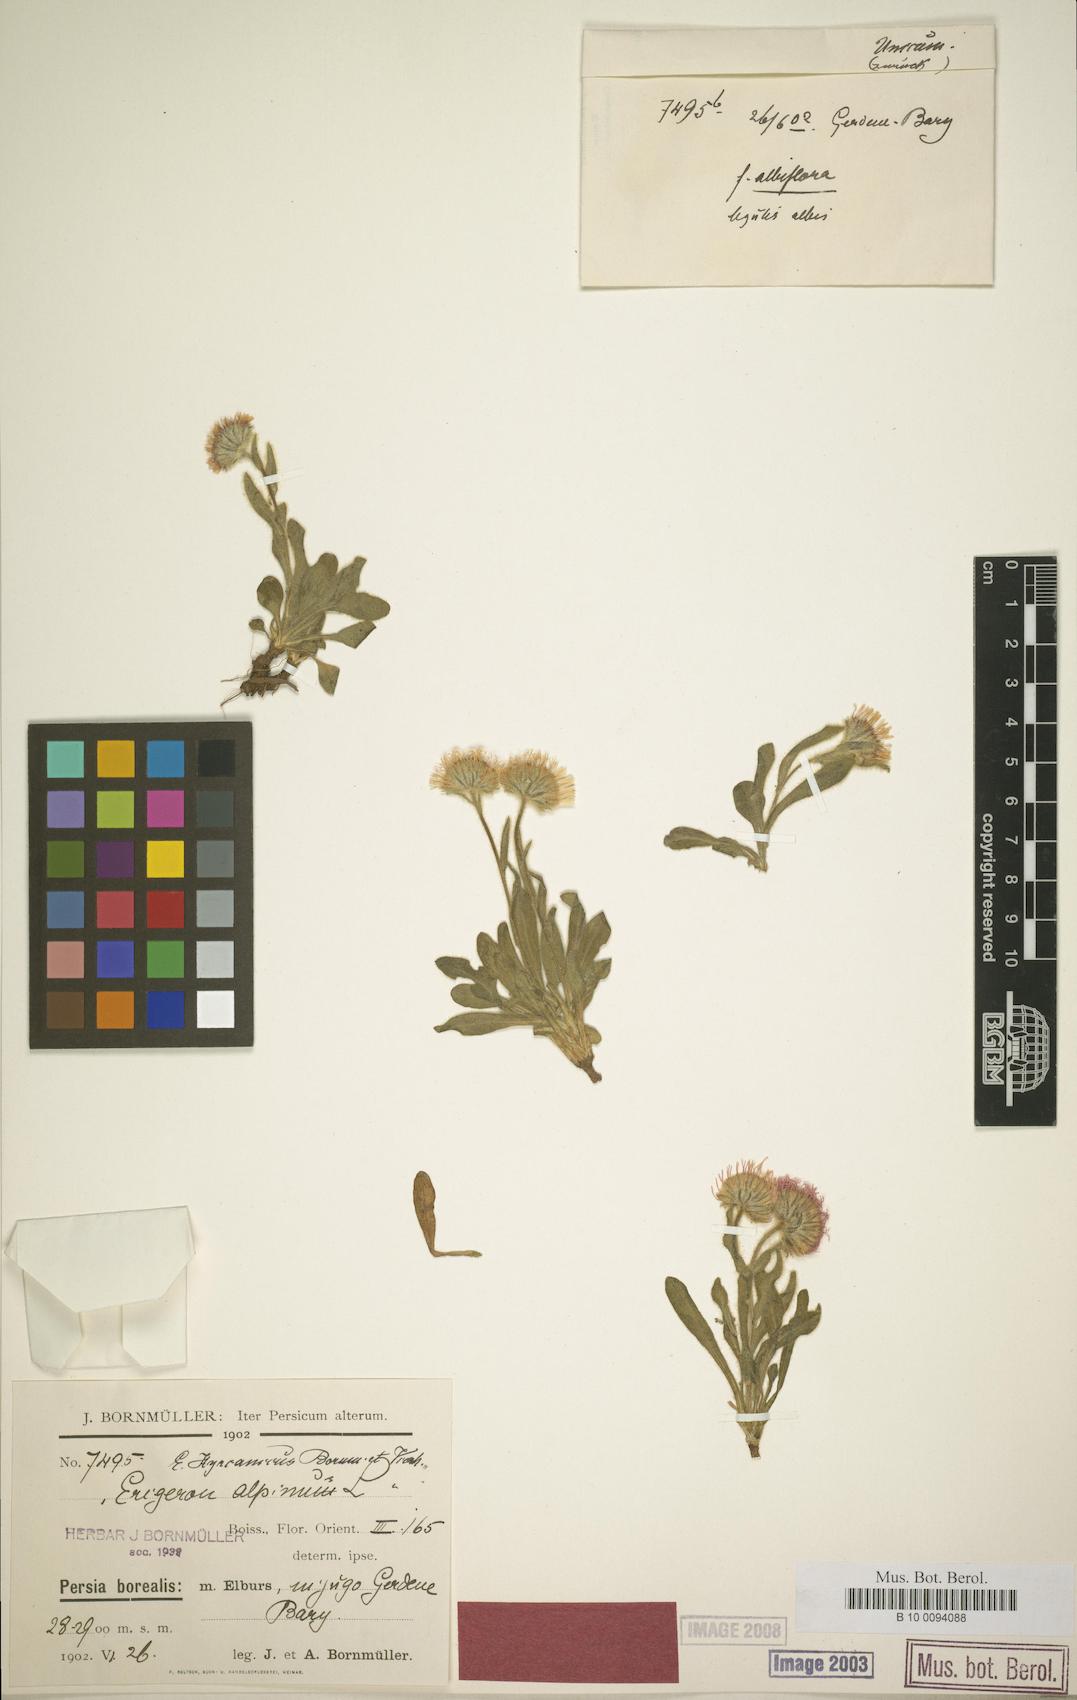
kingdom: Plantae
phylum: Tracheophyta
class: Magnoliopsida
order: Asterales
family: Asteraceae
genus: Erigeron
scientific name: Erigeron hyrcanicus
